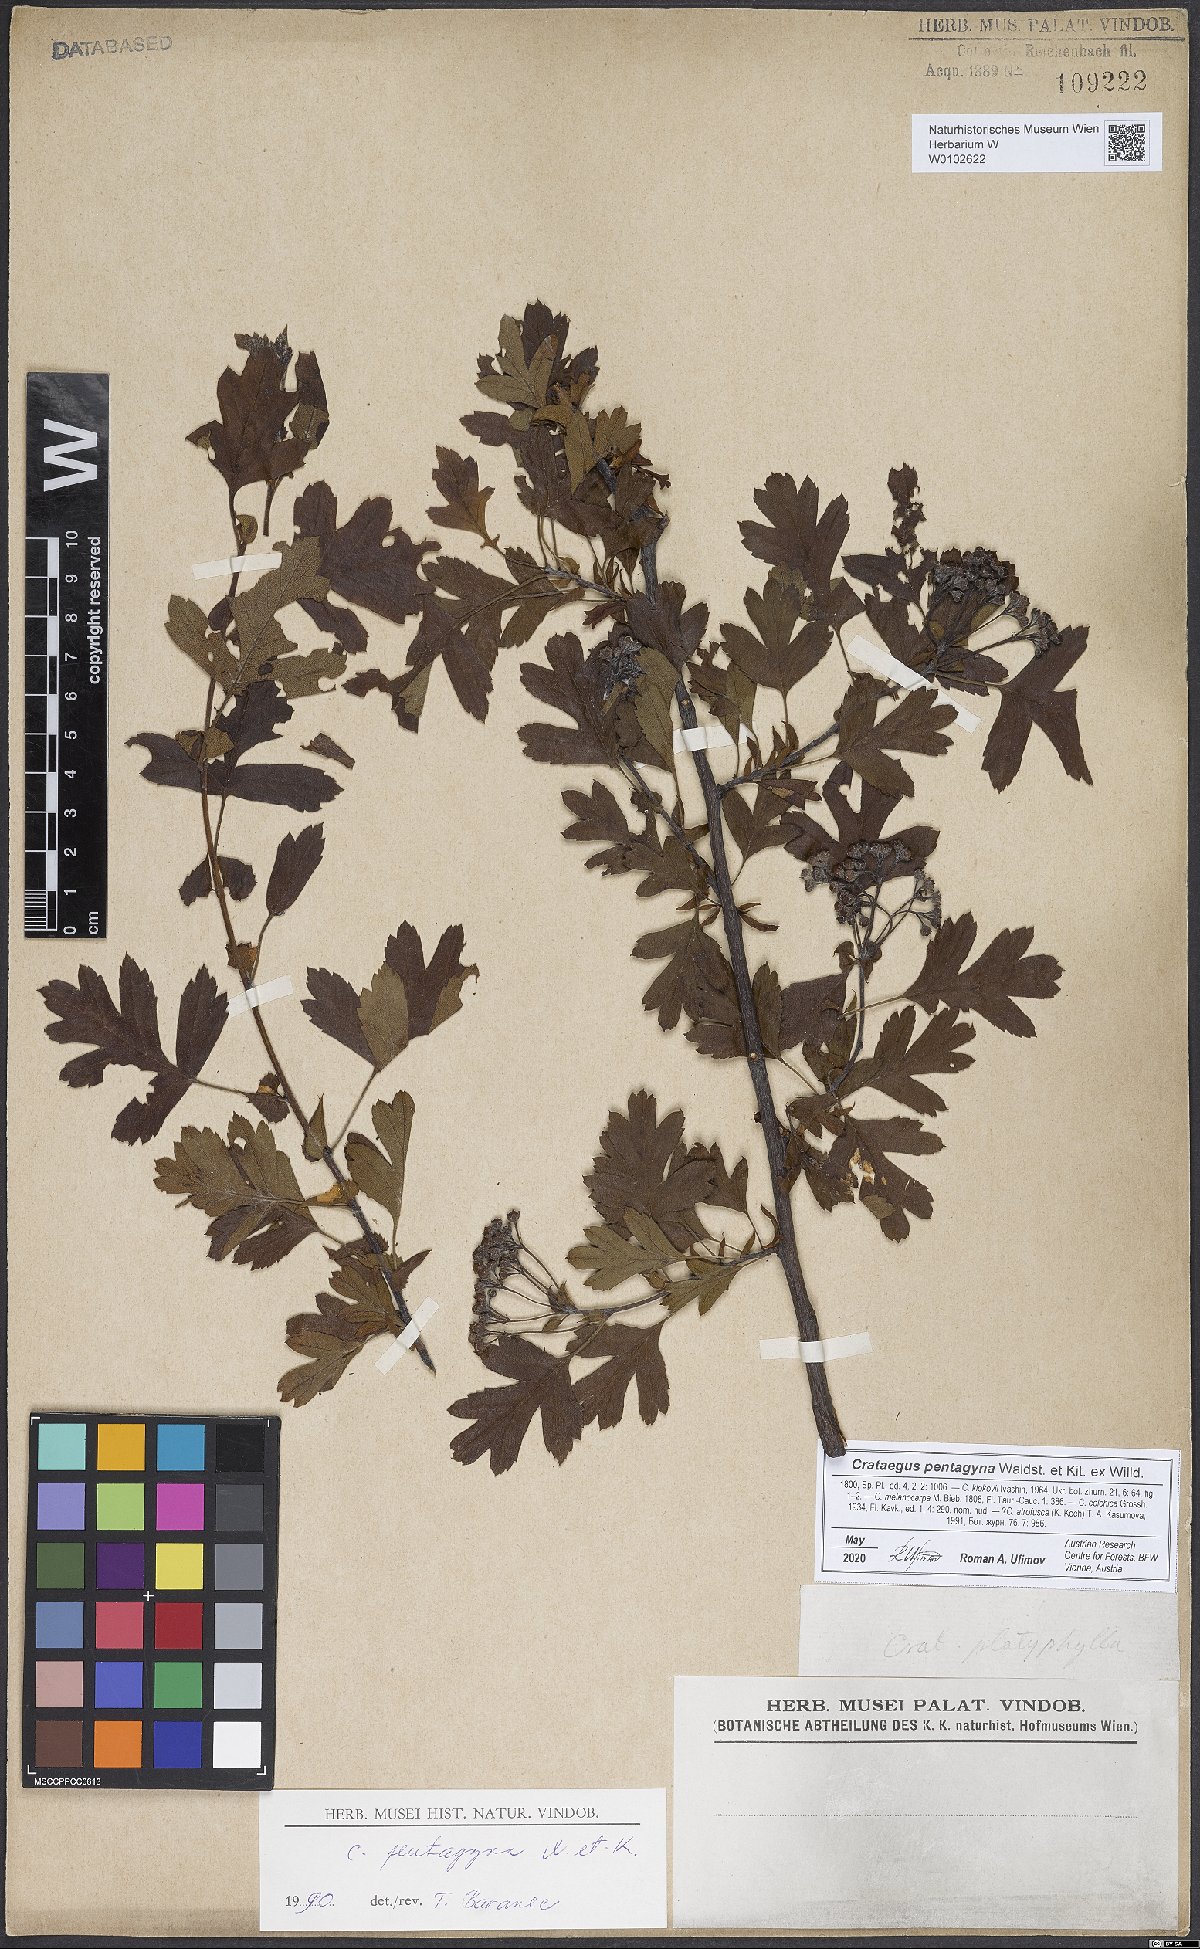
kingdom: Plantae
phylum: Tracheophyta
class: Magnoliopsida
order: Rosales
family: Rosaceae
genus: Crataegus
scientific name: Crataegus pentagyna
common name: Small-flowered black hawthorn
